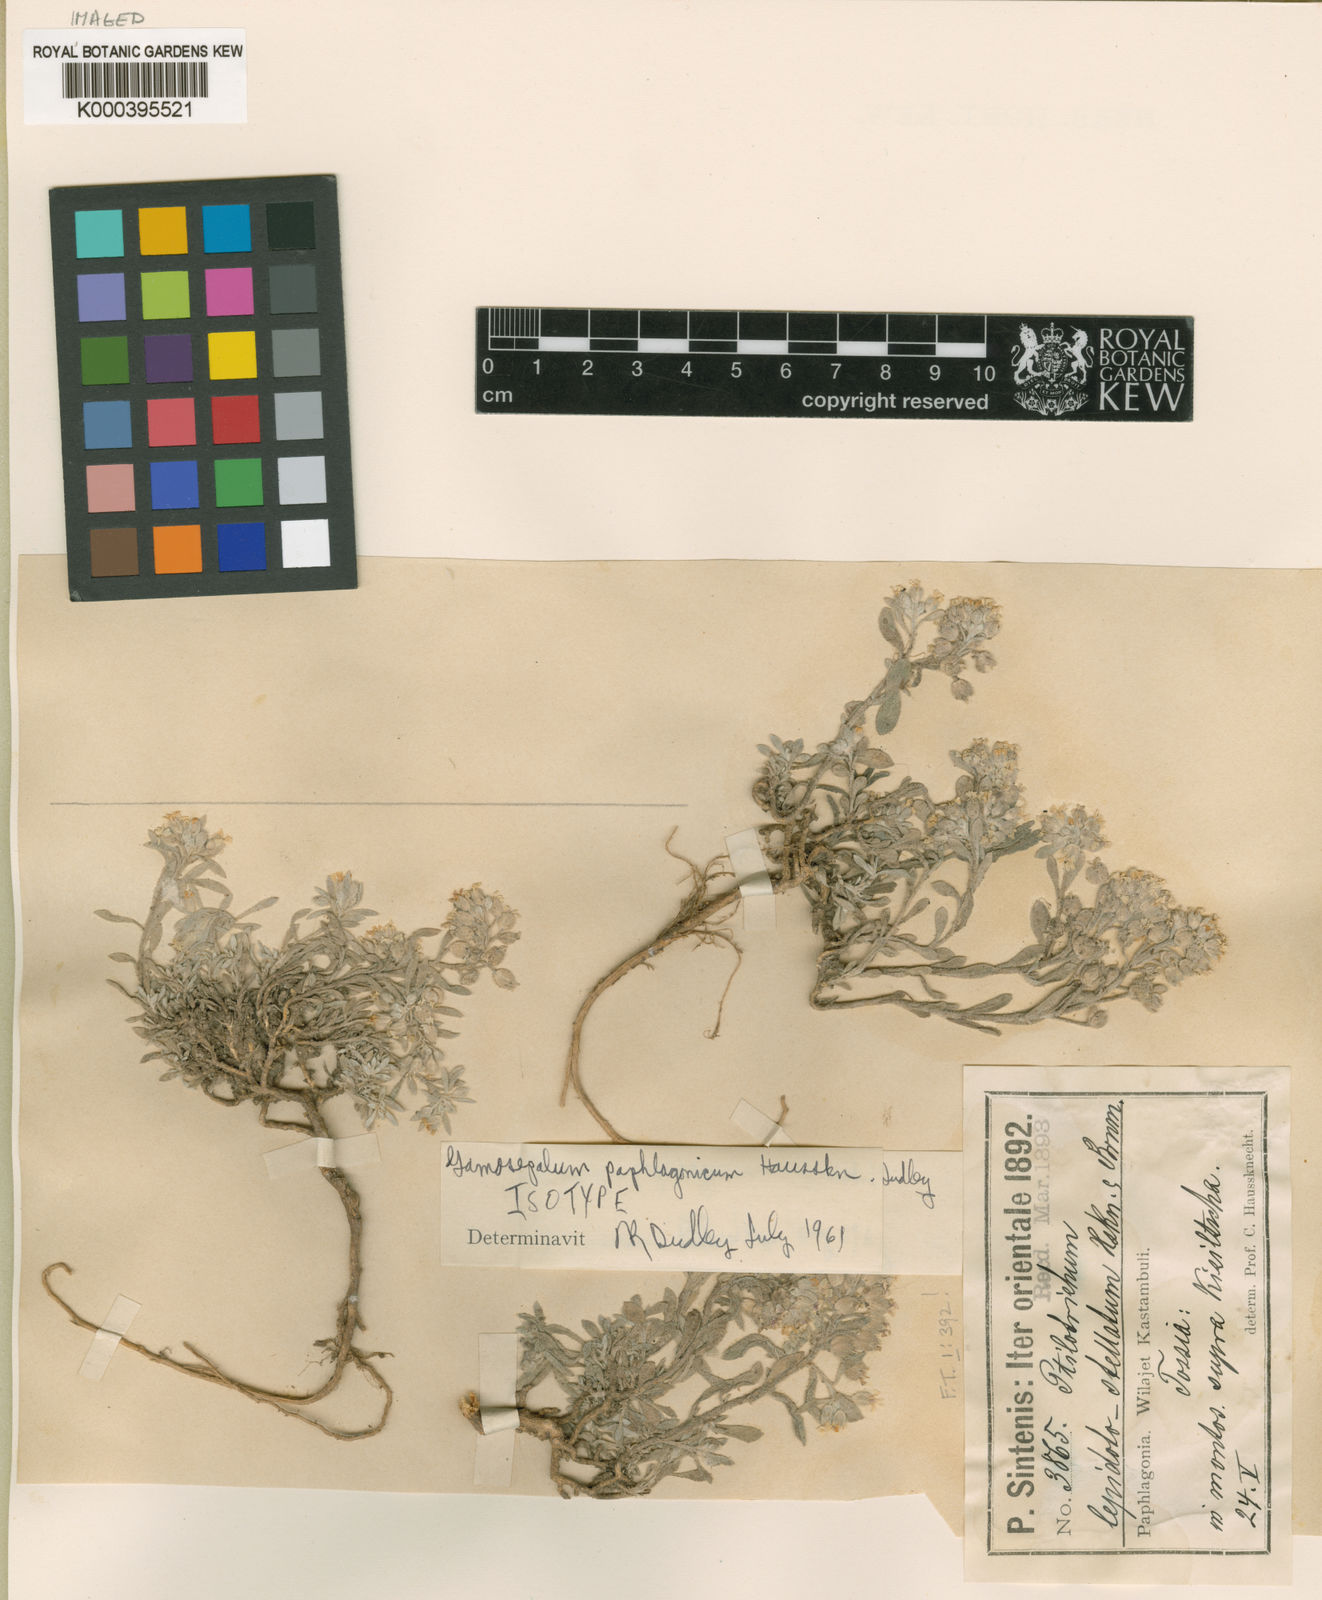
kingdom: Plantae
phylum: Tracheophyta
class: Magnoliopsida
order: Brassicales
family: Brassicaceae
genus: Alyssum
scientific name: Alyssum paphlagonicum
